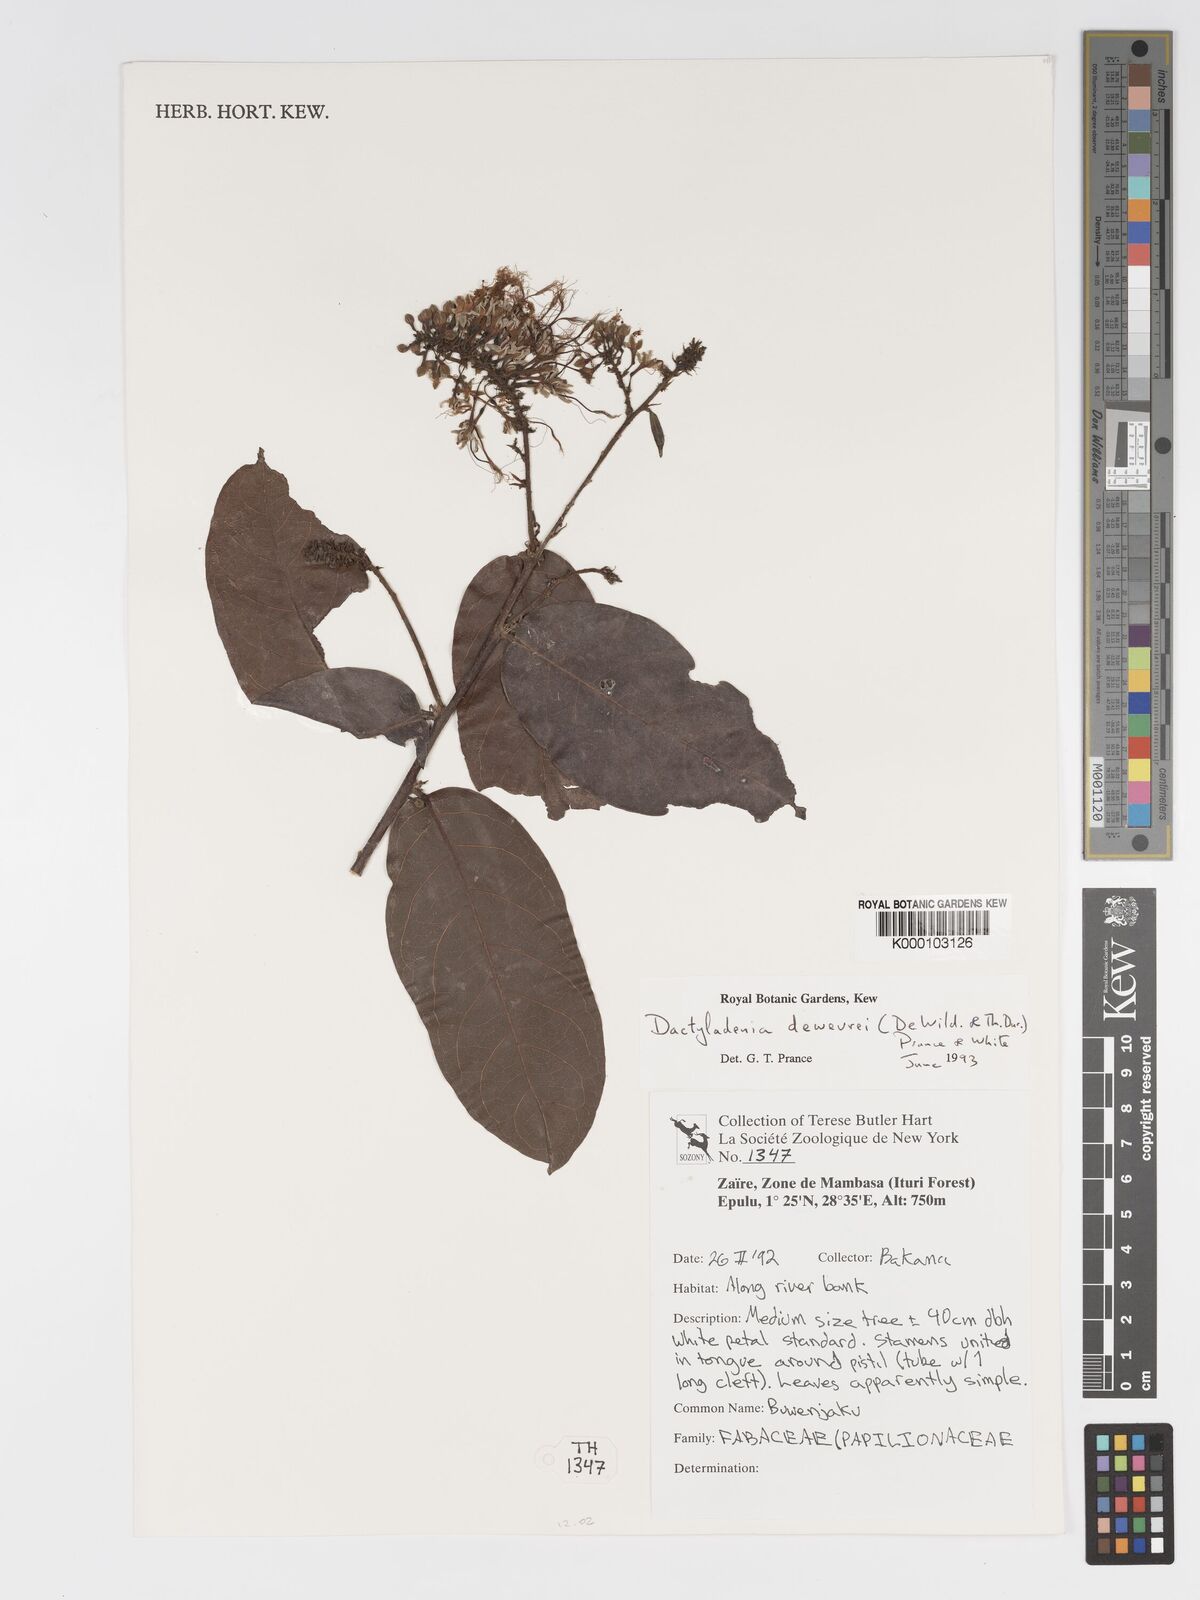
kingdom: Plantae
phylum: Tracheophyta
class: Magnoliopsida
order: Malpighiales
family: Chrysobalanaceae
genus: Dactyladenia
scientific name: Dactyladenia dewevrei
